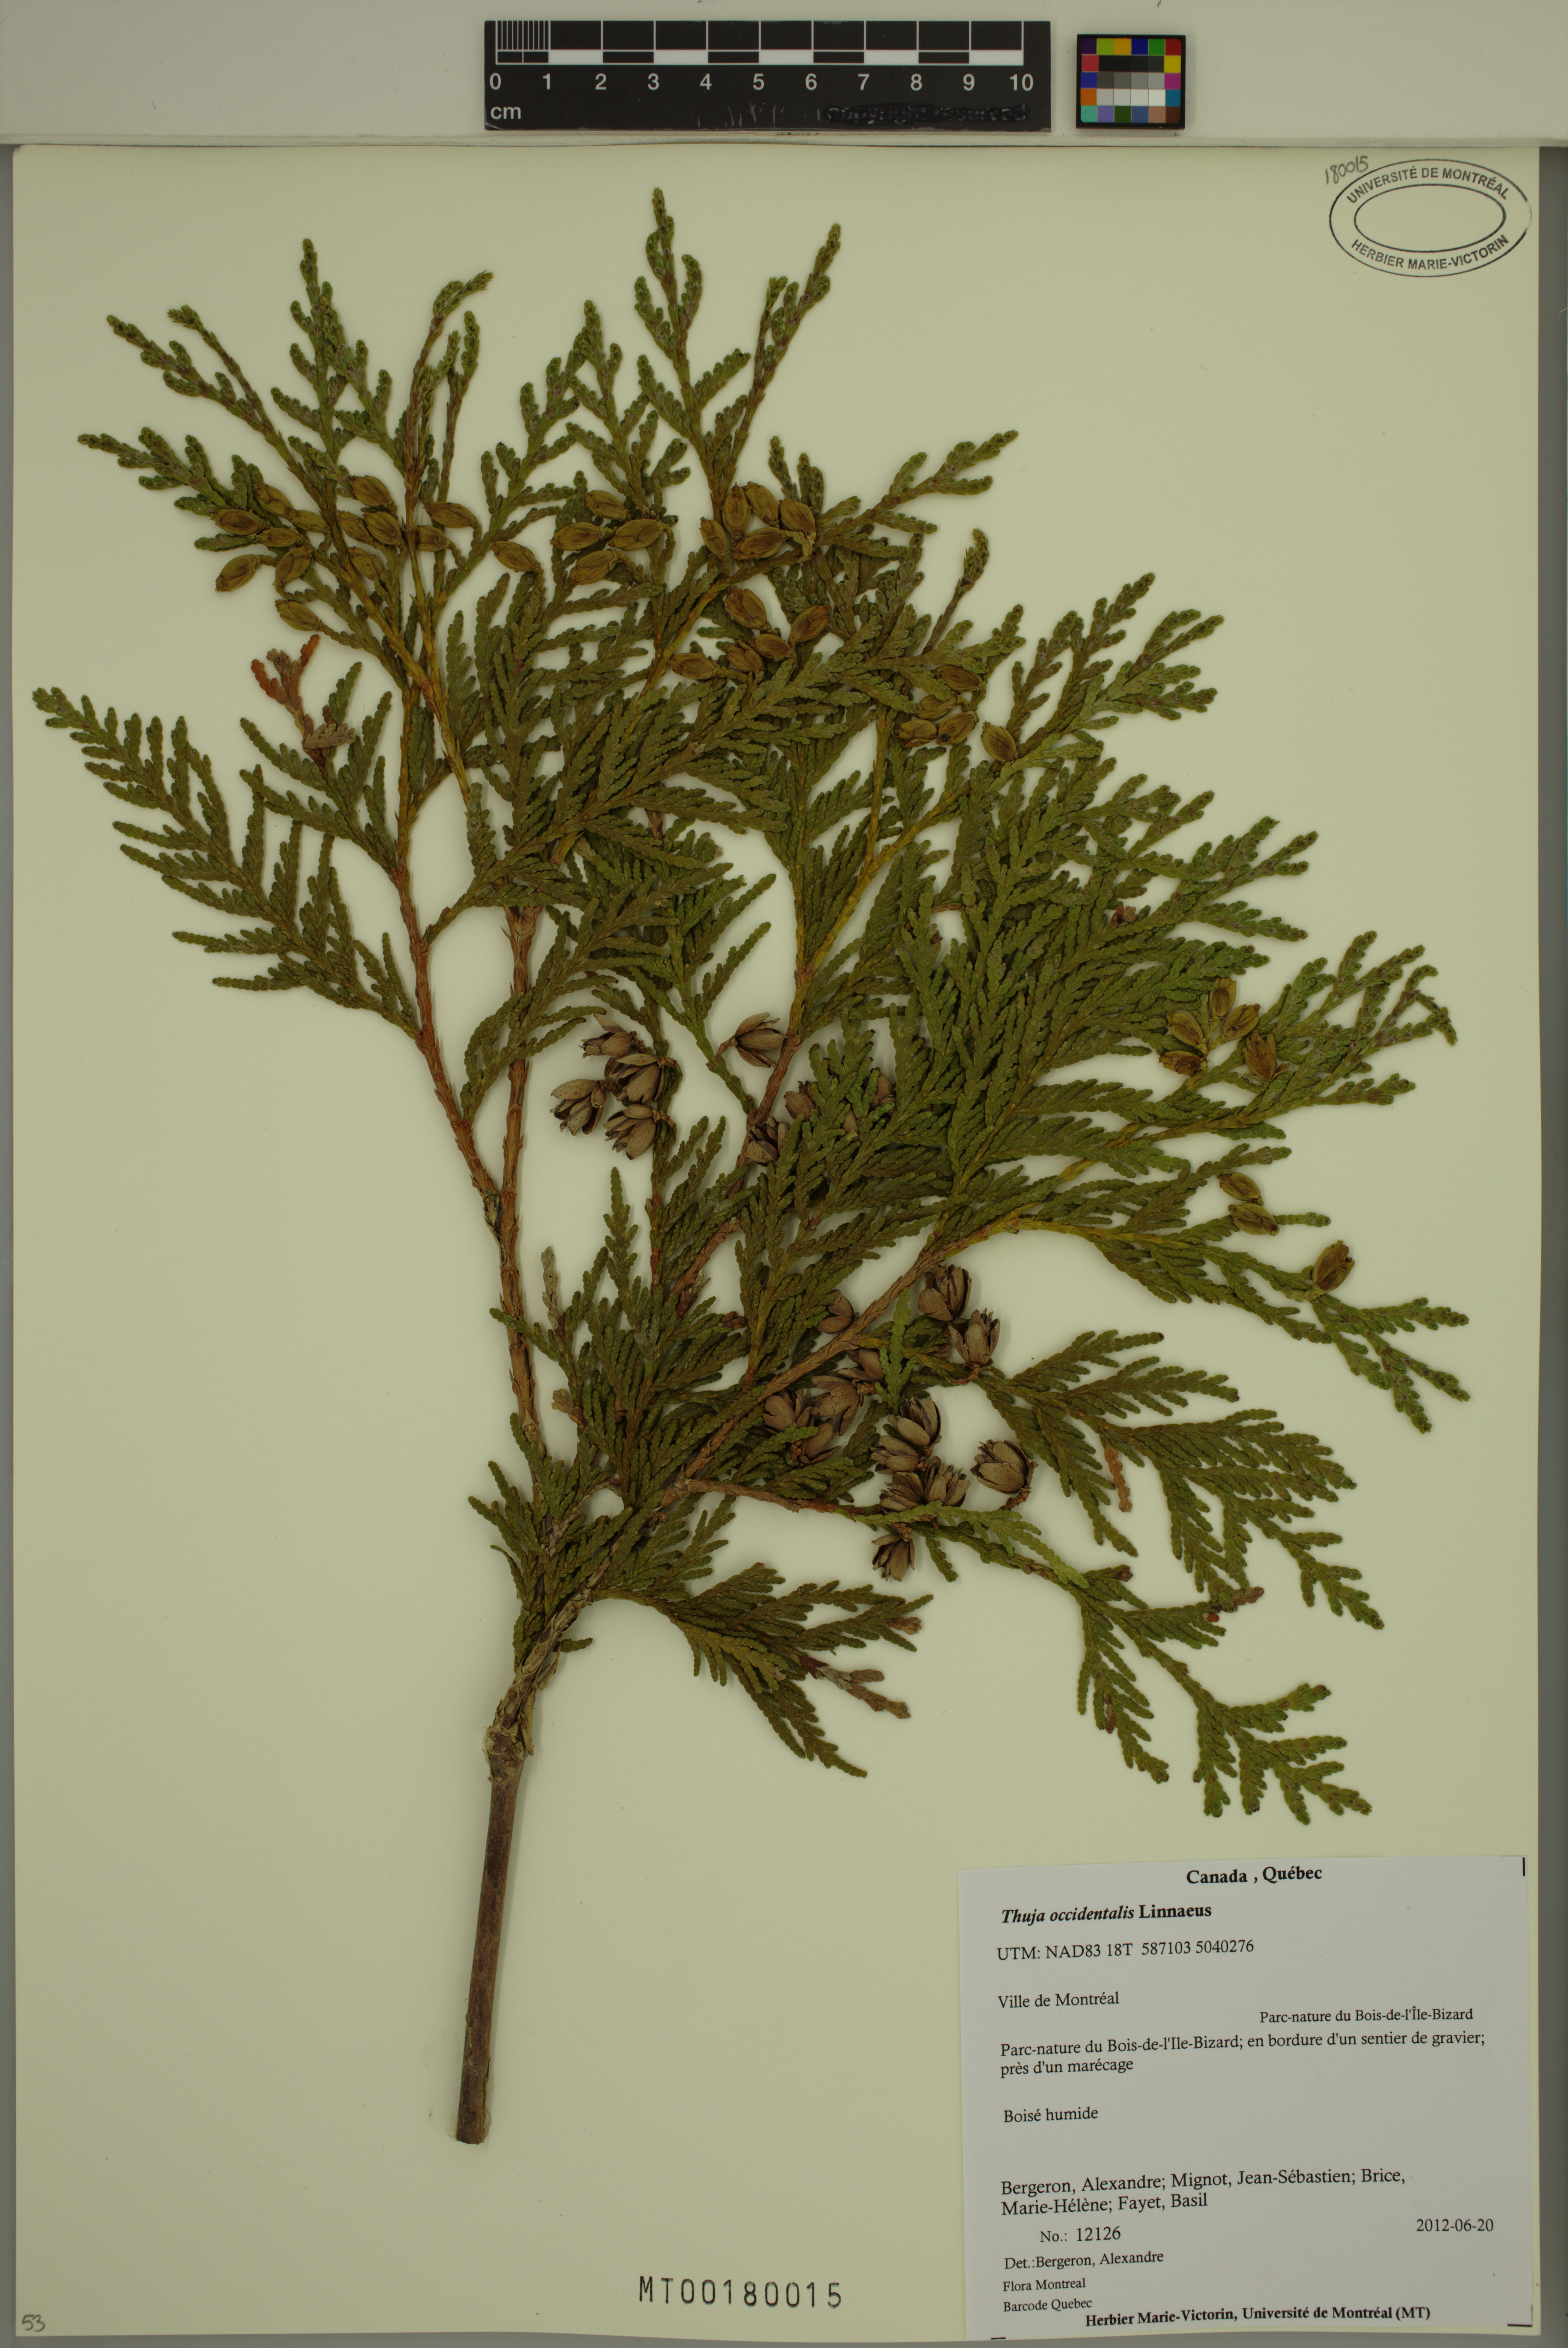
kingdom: Plantae
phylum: Tracheophyta
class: Pinopsida
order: Pinales
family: Cupressaceae
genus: Thuja
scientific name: Thuja occidentalis
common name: Northern white-cedar
